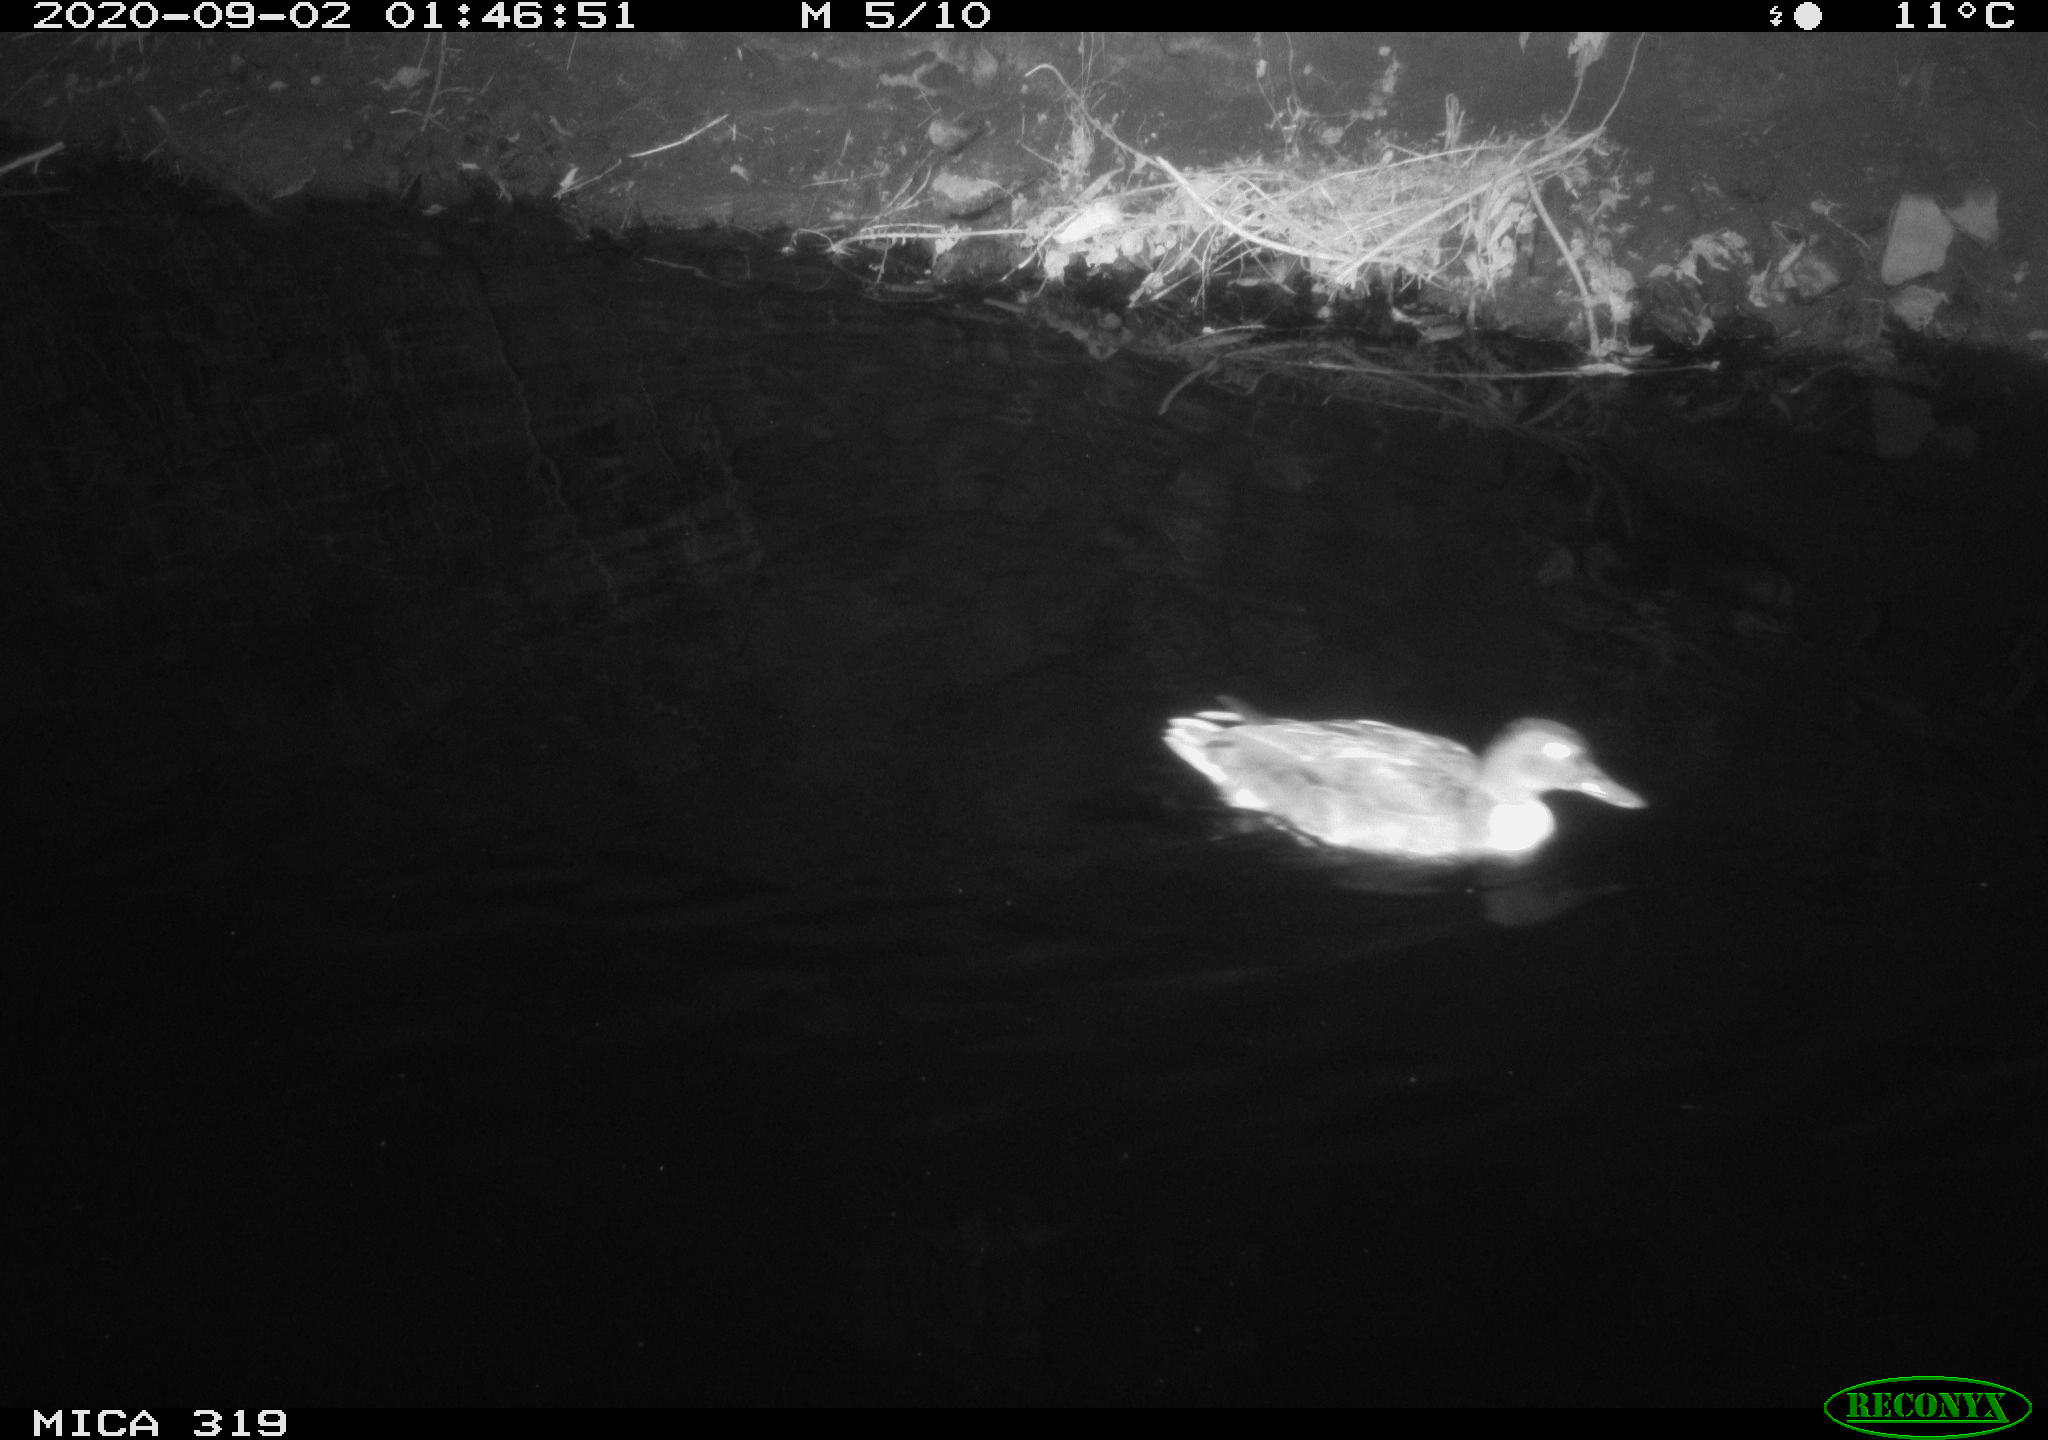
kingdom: Animalia
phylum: Chordata
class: Aves
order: Anseriformes
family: Anatidae
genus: Anas
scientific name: Anas platyrhynchos
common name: Mallard
